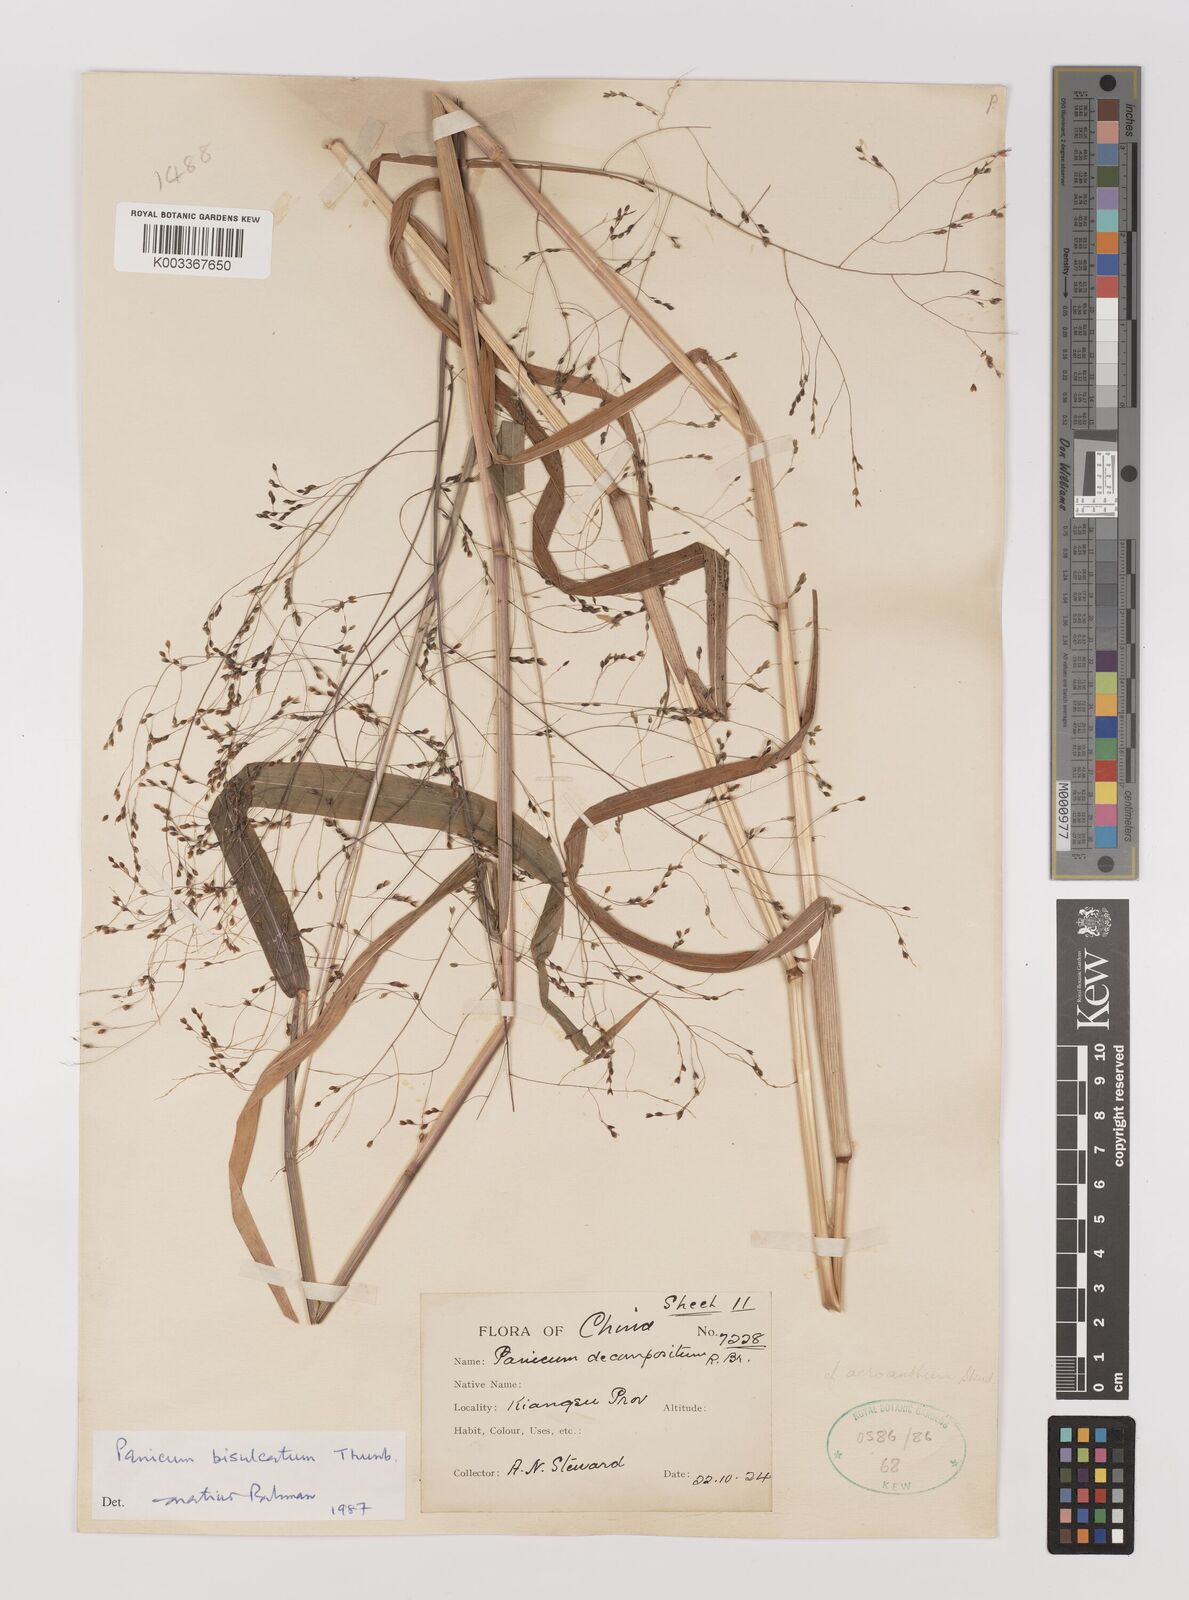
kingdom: Plantae
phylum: Tracheophyta
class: Liliopsida
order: Poales
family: Poaceae
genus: Panicum
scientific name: Panicum bisulcatum
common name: Japanese panicgrass
